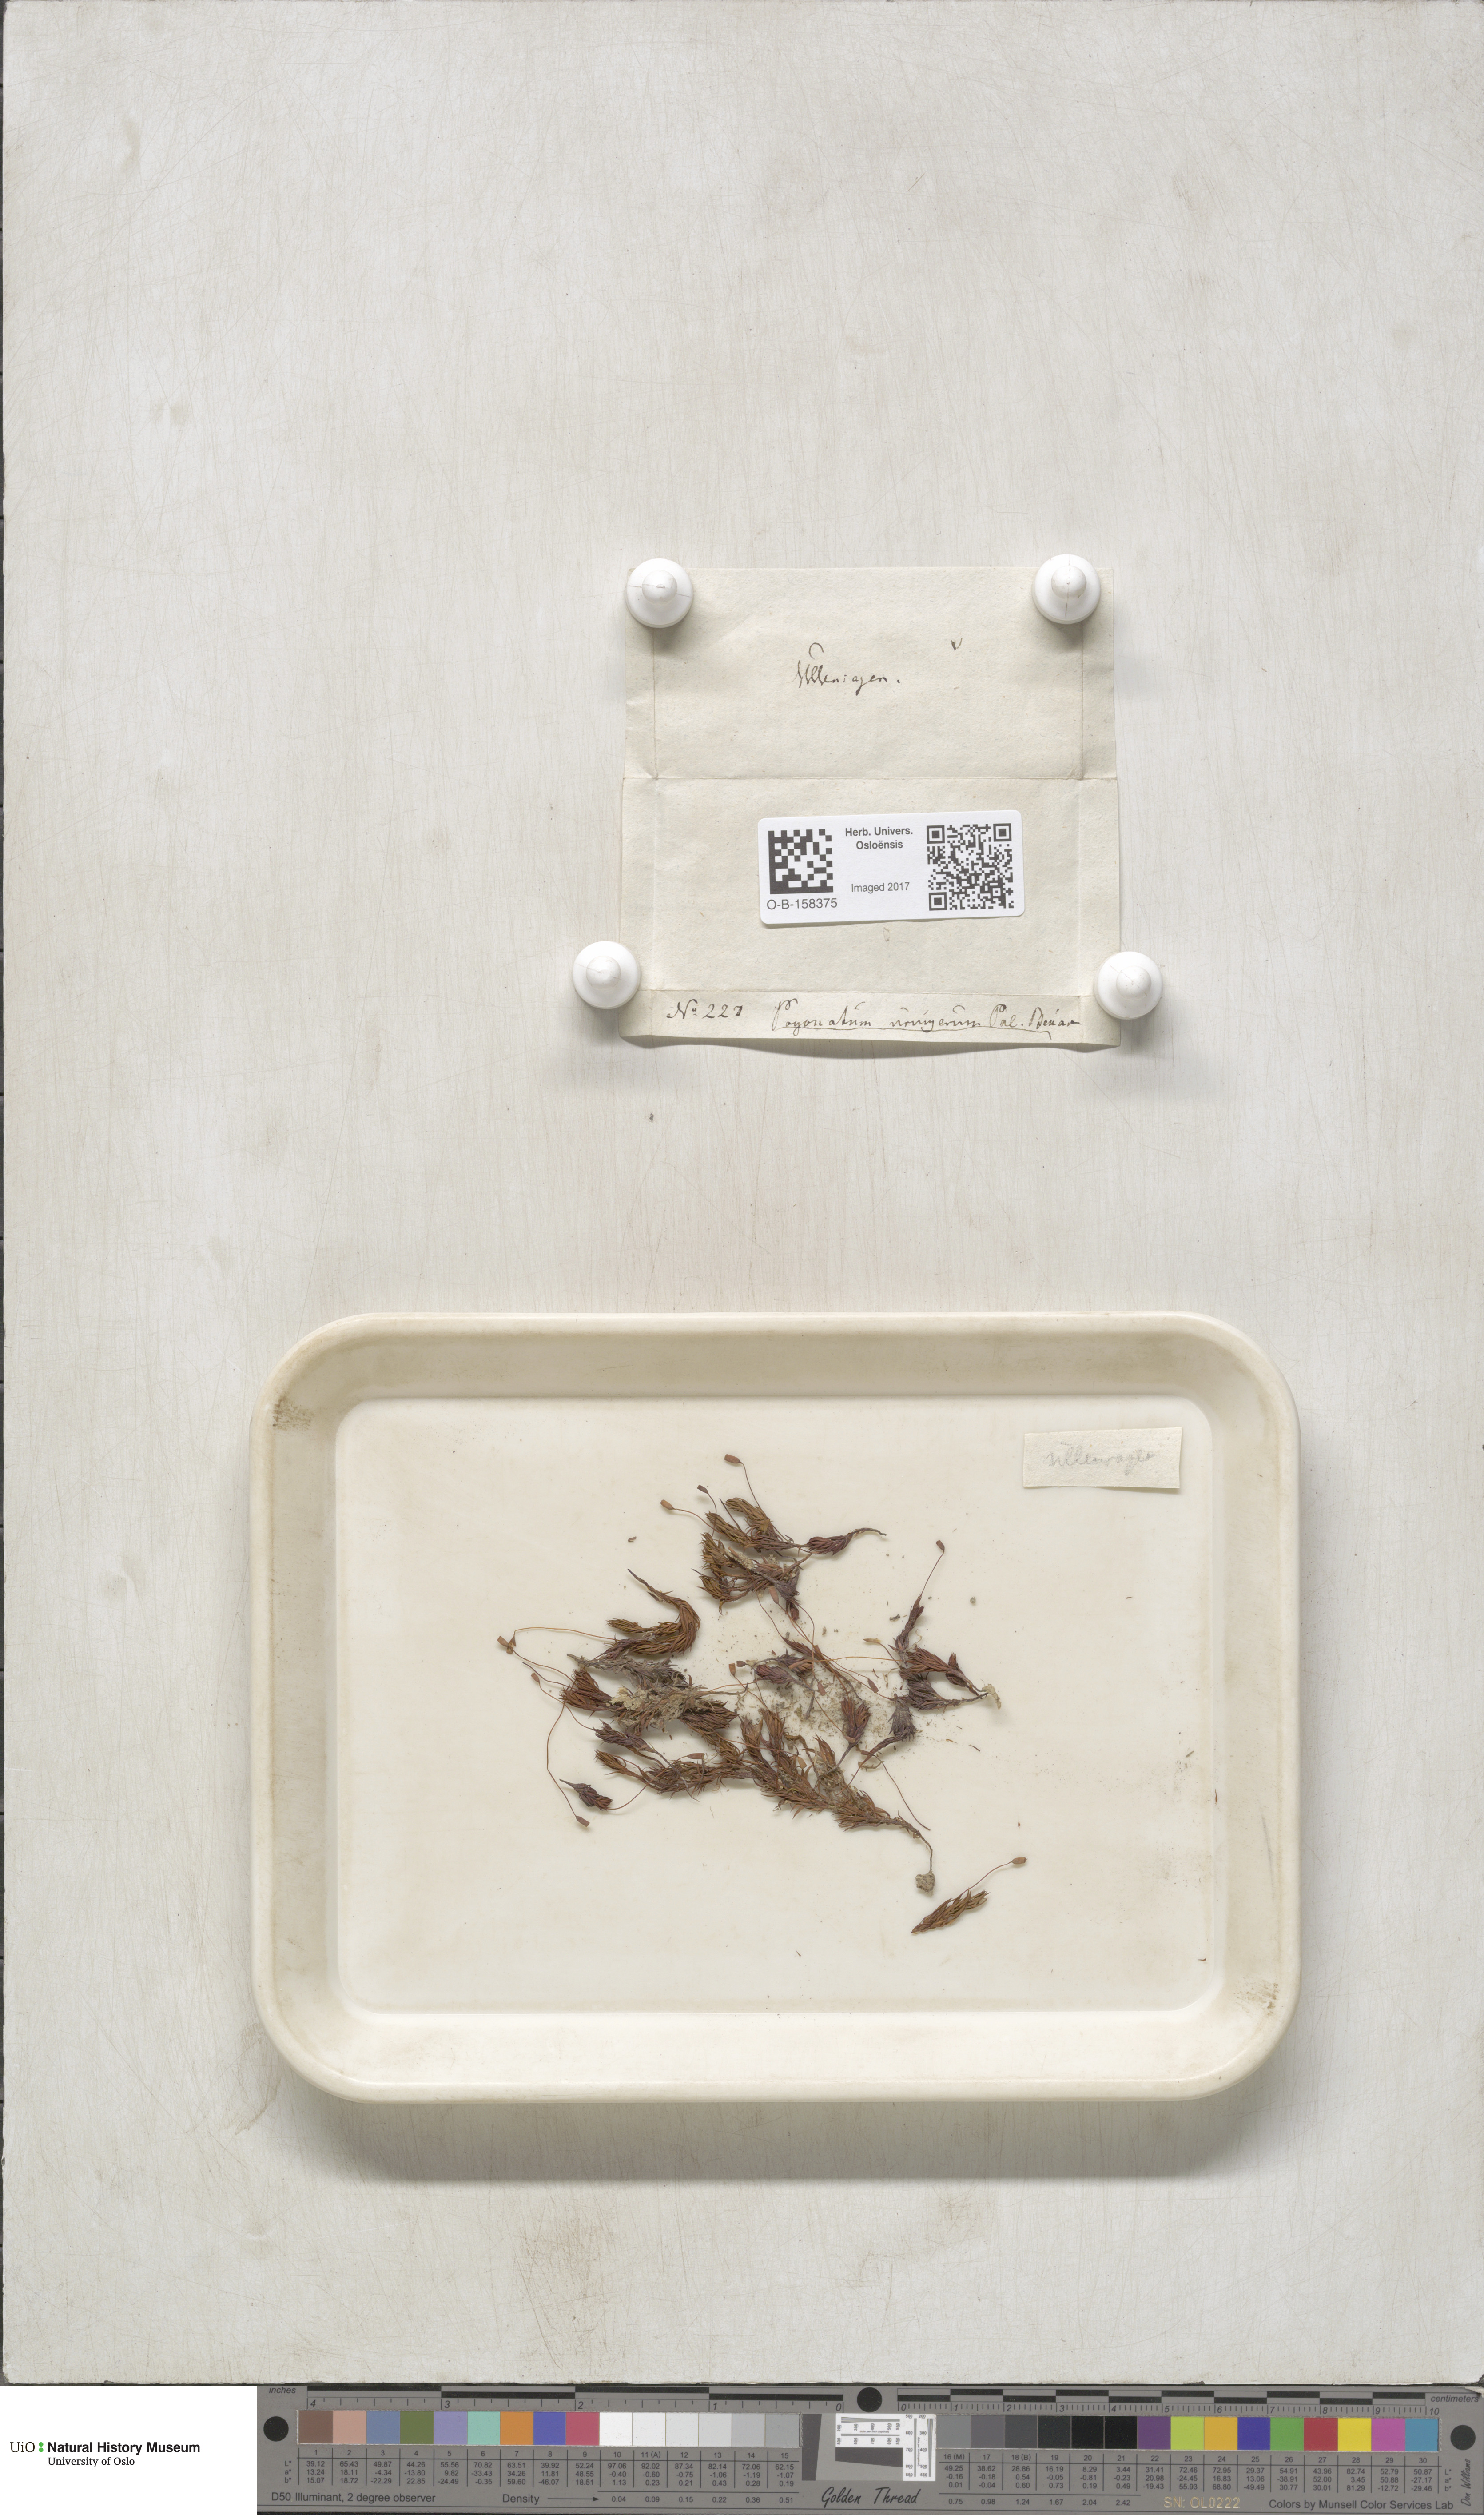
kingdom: Plantae
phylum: Bryophyta
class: Polytrichopsida
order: Polytrichales
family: Polytrichaceae
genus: Pogonatum
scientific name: Pogonatum urnigerum
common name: Urn hair moss
